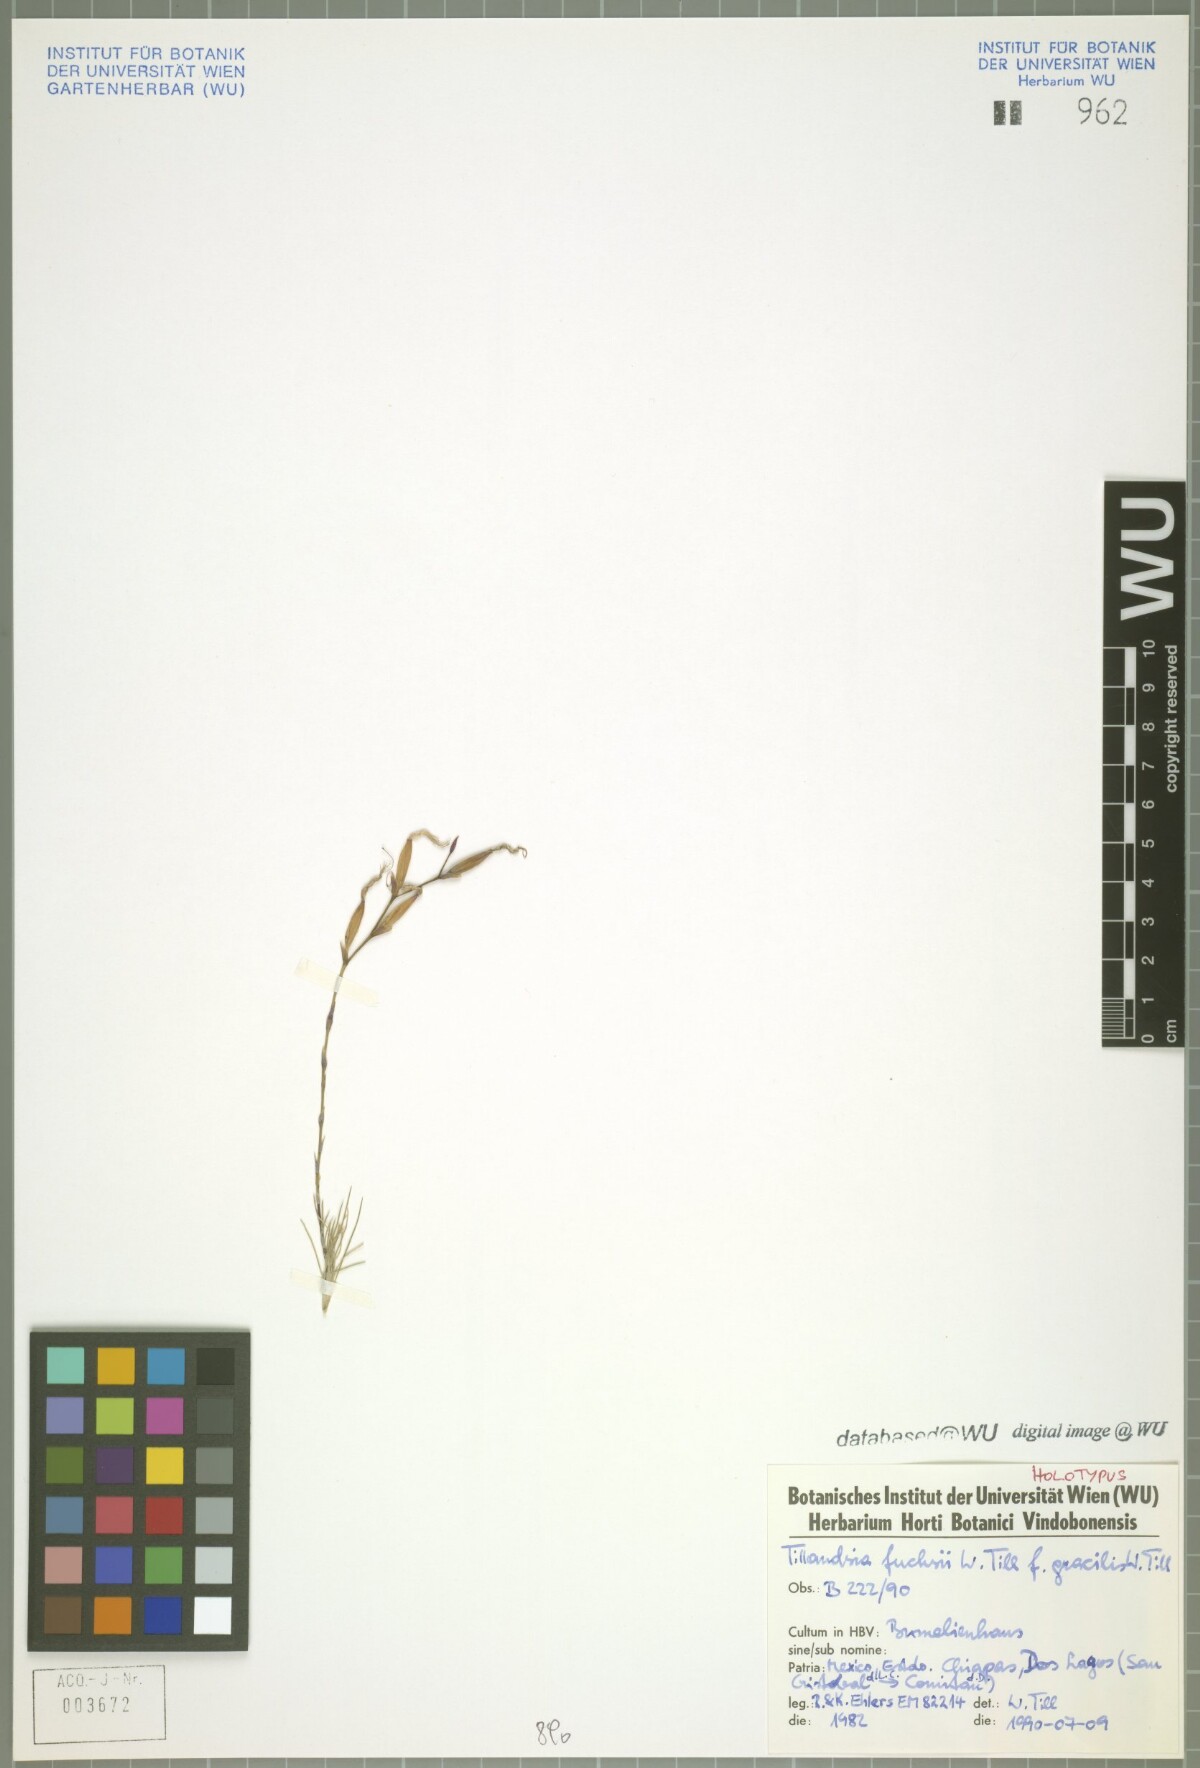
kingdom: Plantae
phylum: Tracheophyta
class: Liliopsida
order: Poales
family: Bromeliaceae
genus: Tillandsia
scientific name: Tillandsia fuchsii
